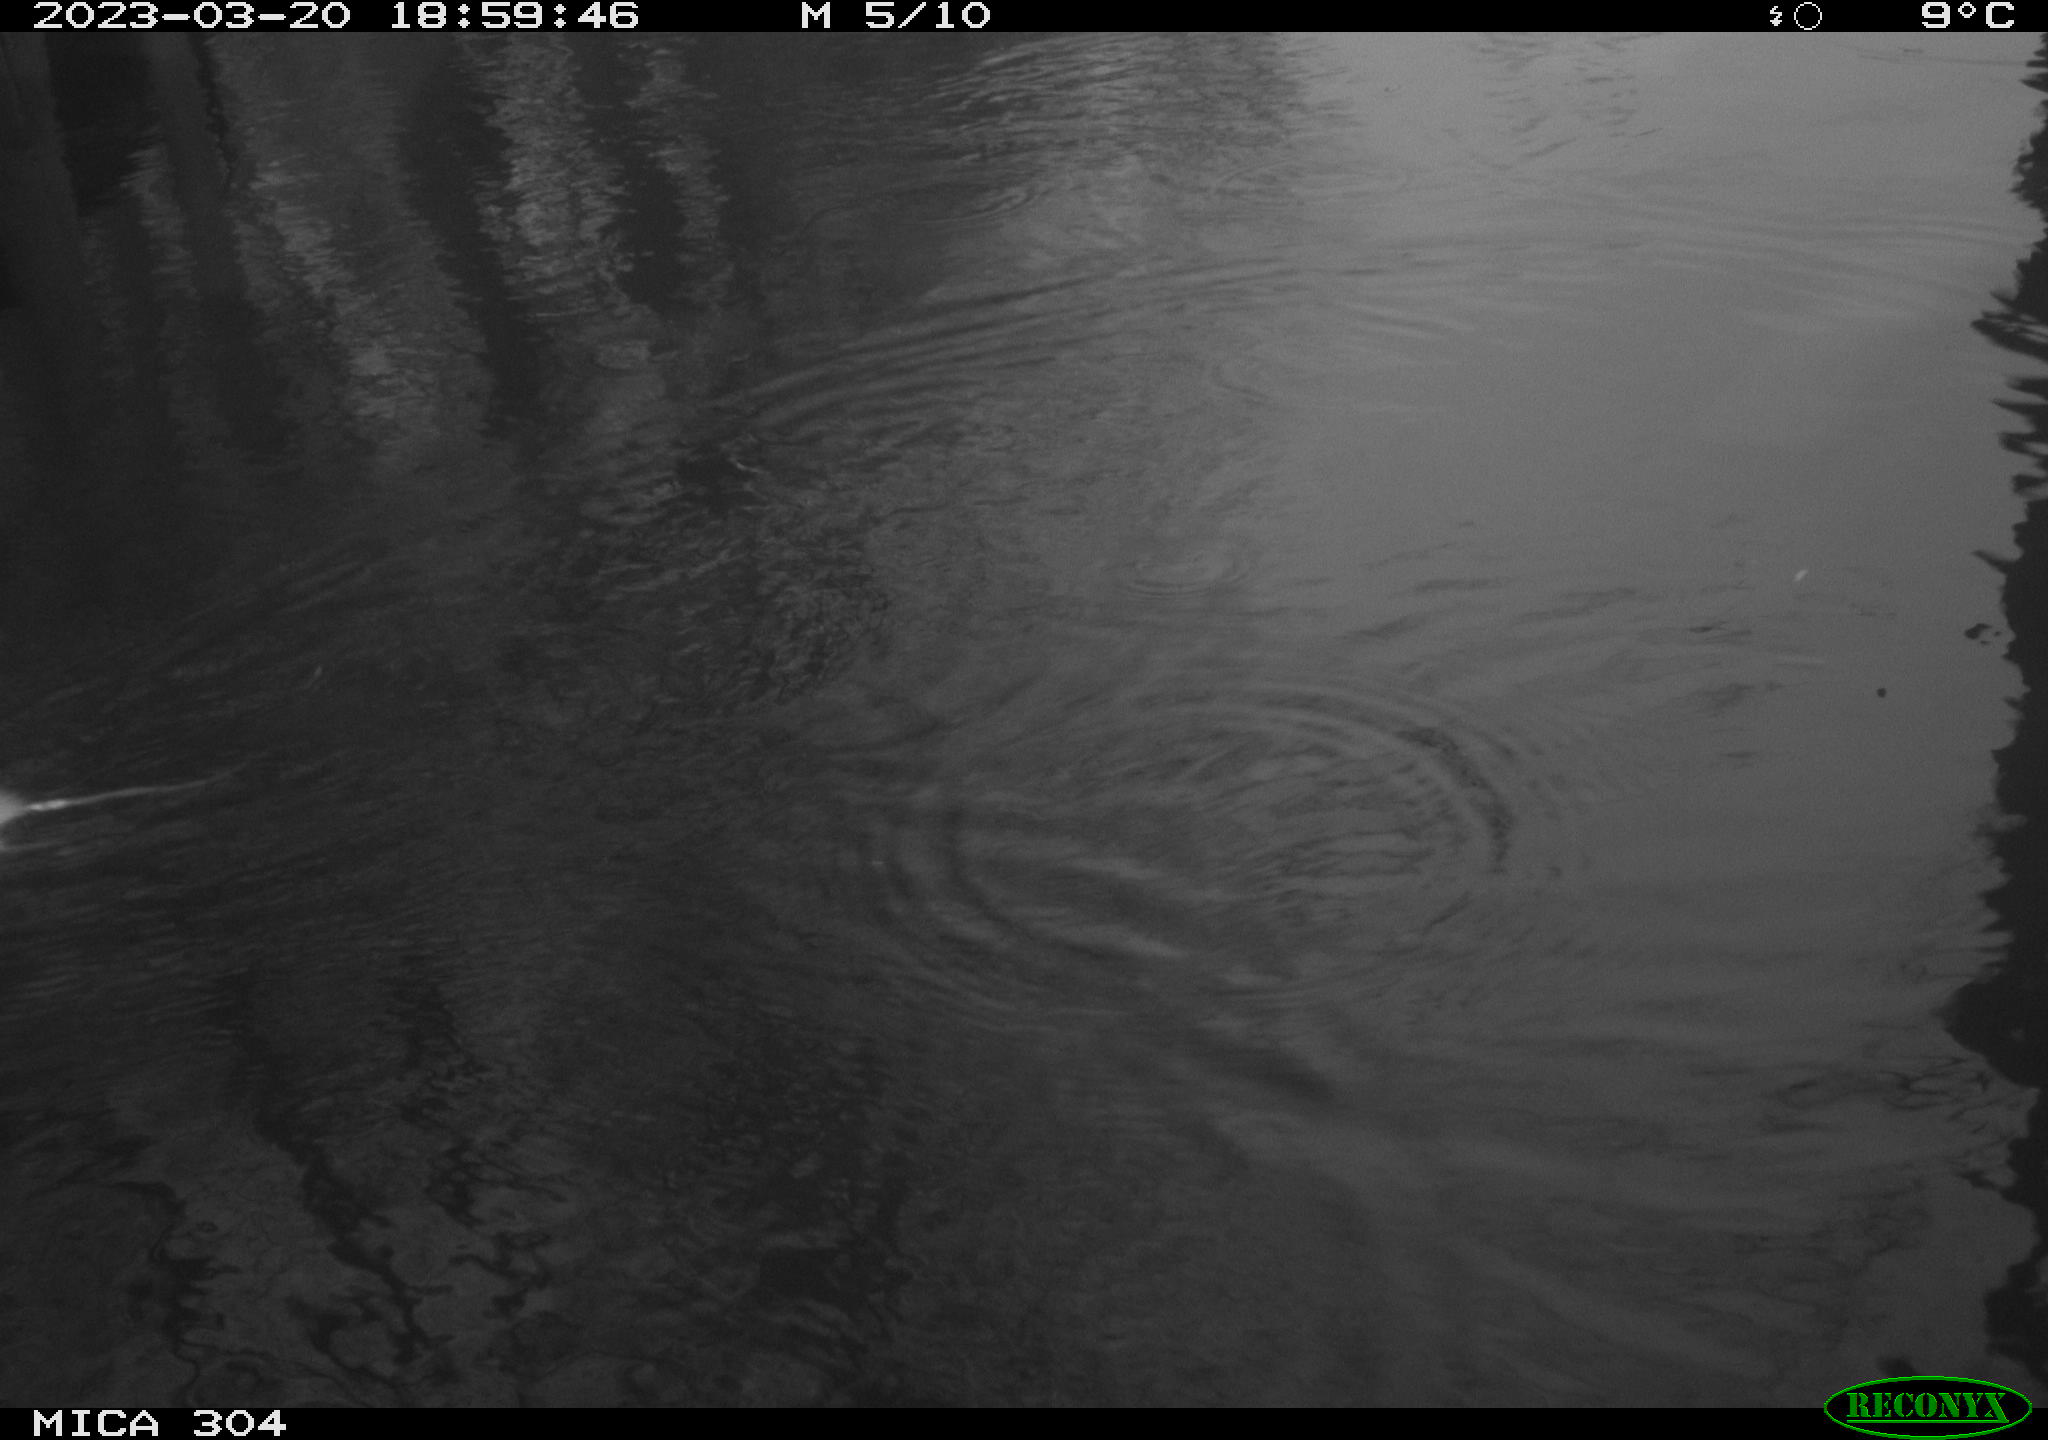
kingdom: Animalia
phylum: Chordata
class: Mammalia
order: Rodentia
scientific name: Rodentia
